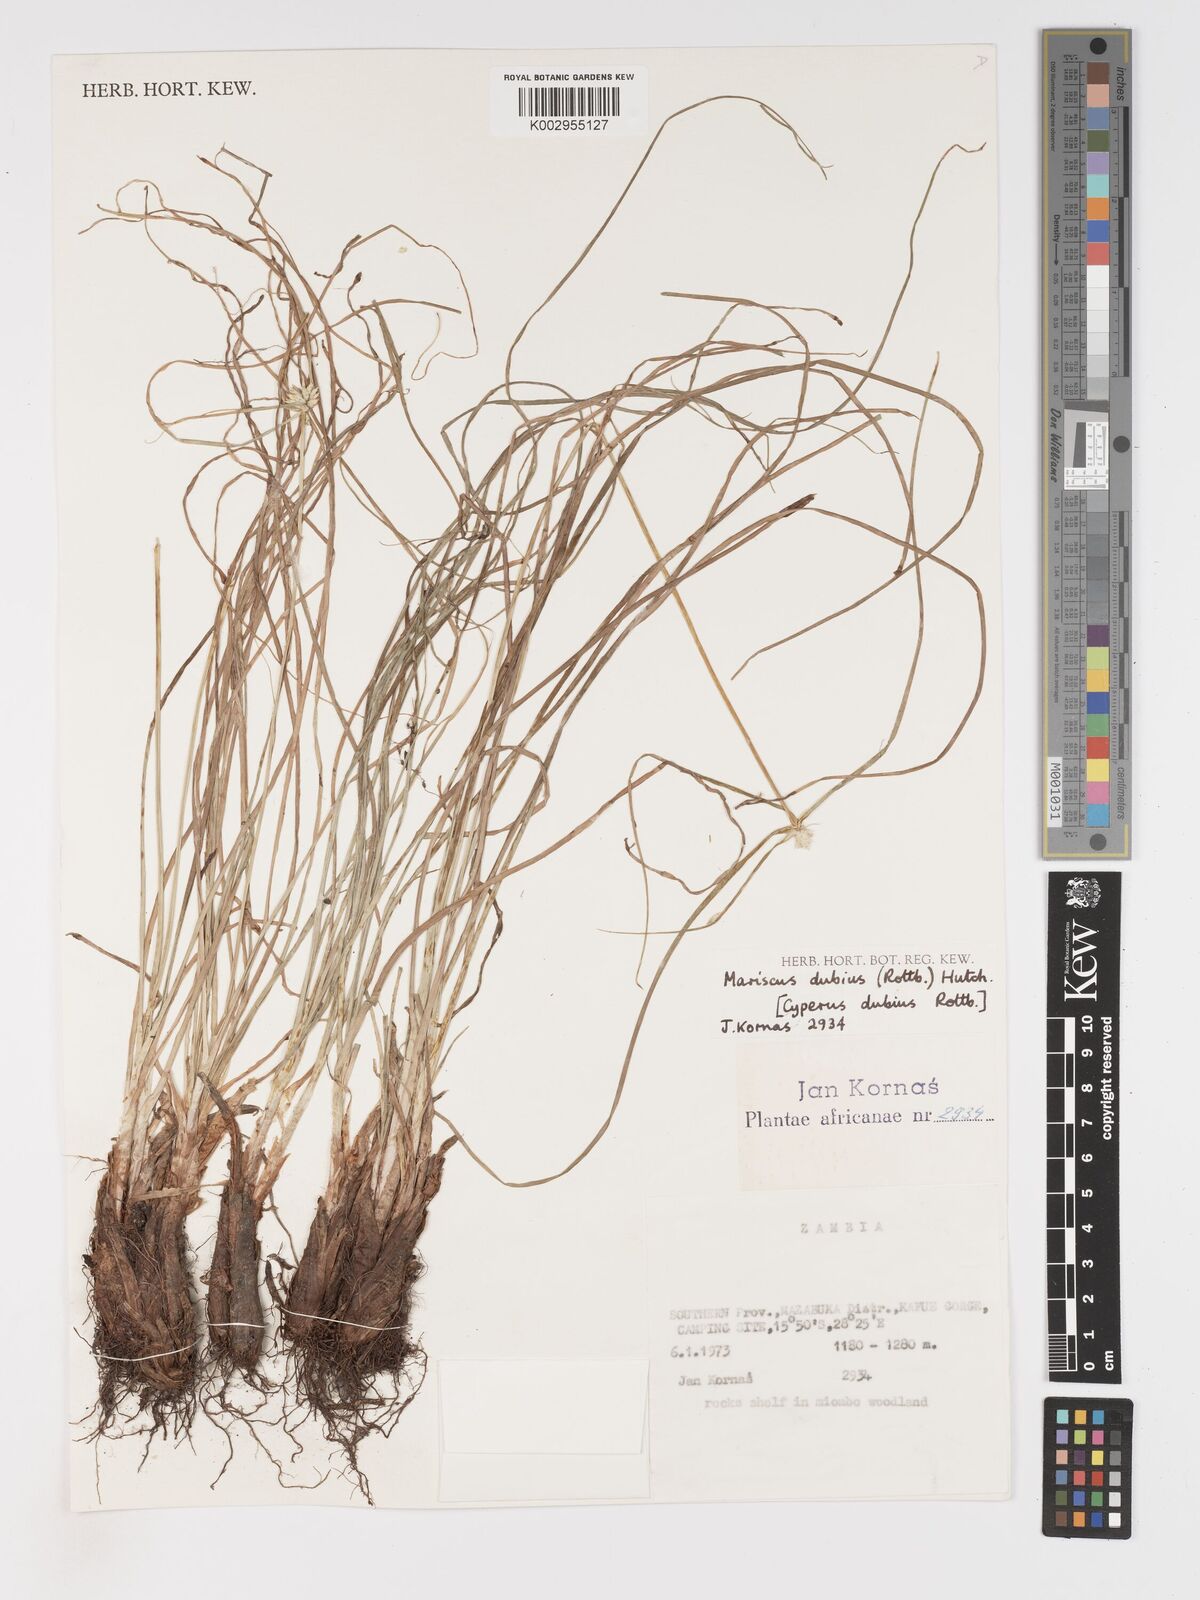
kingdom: Plantae
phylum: Tracheophyta
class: Liliopsida
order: Poales
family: Cyperaceae
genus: Cyperus
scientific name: Cyperus dubius
